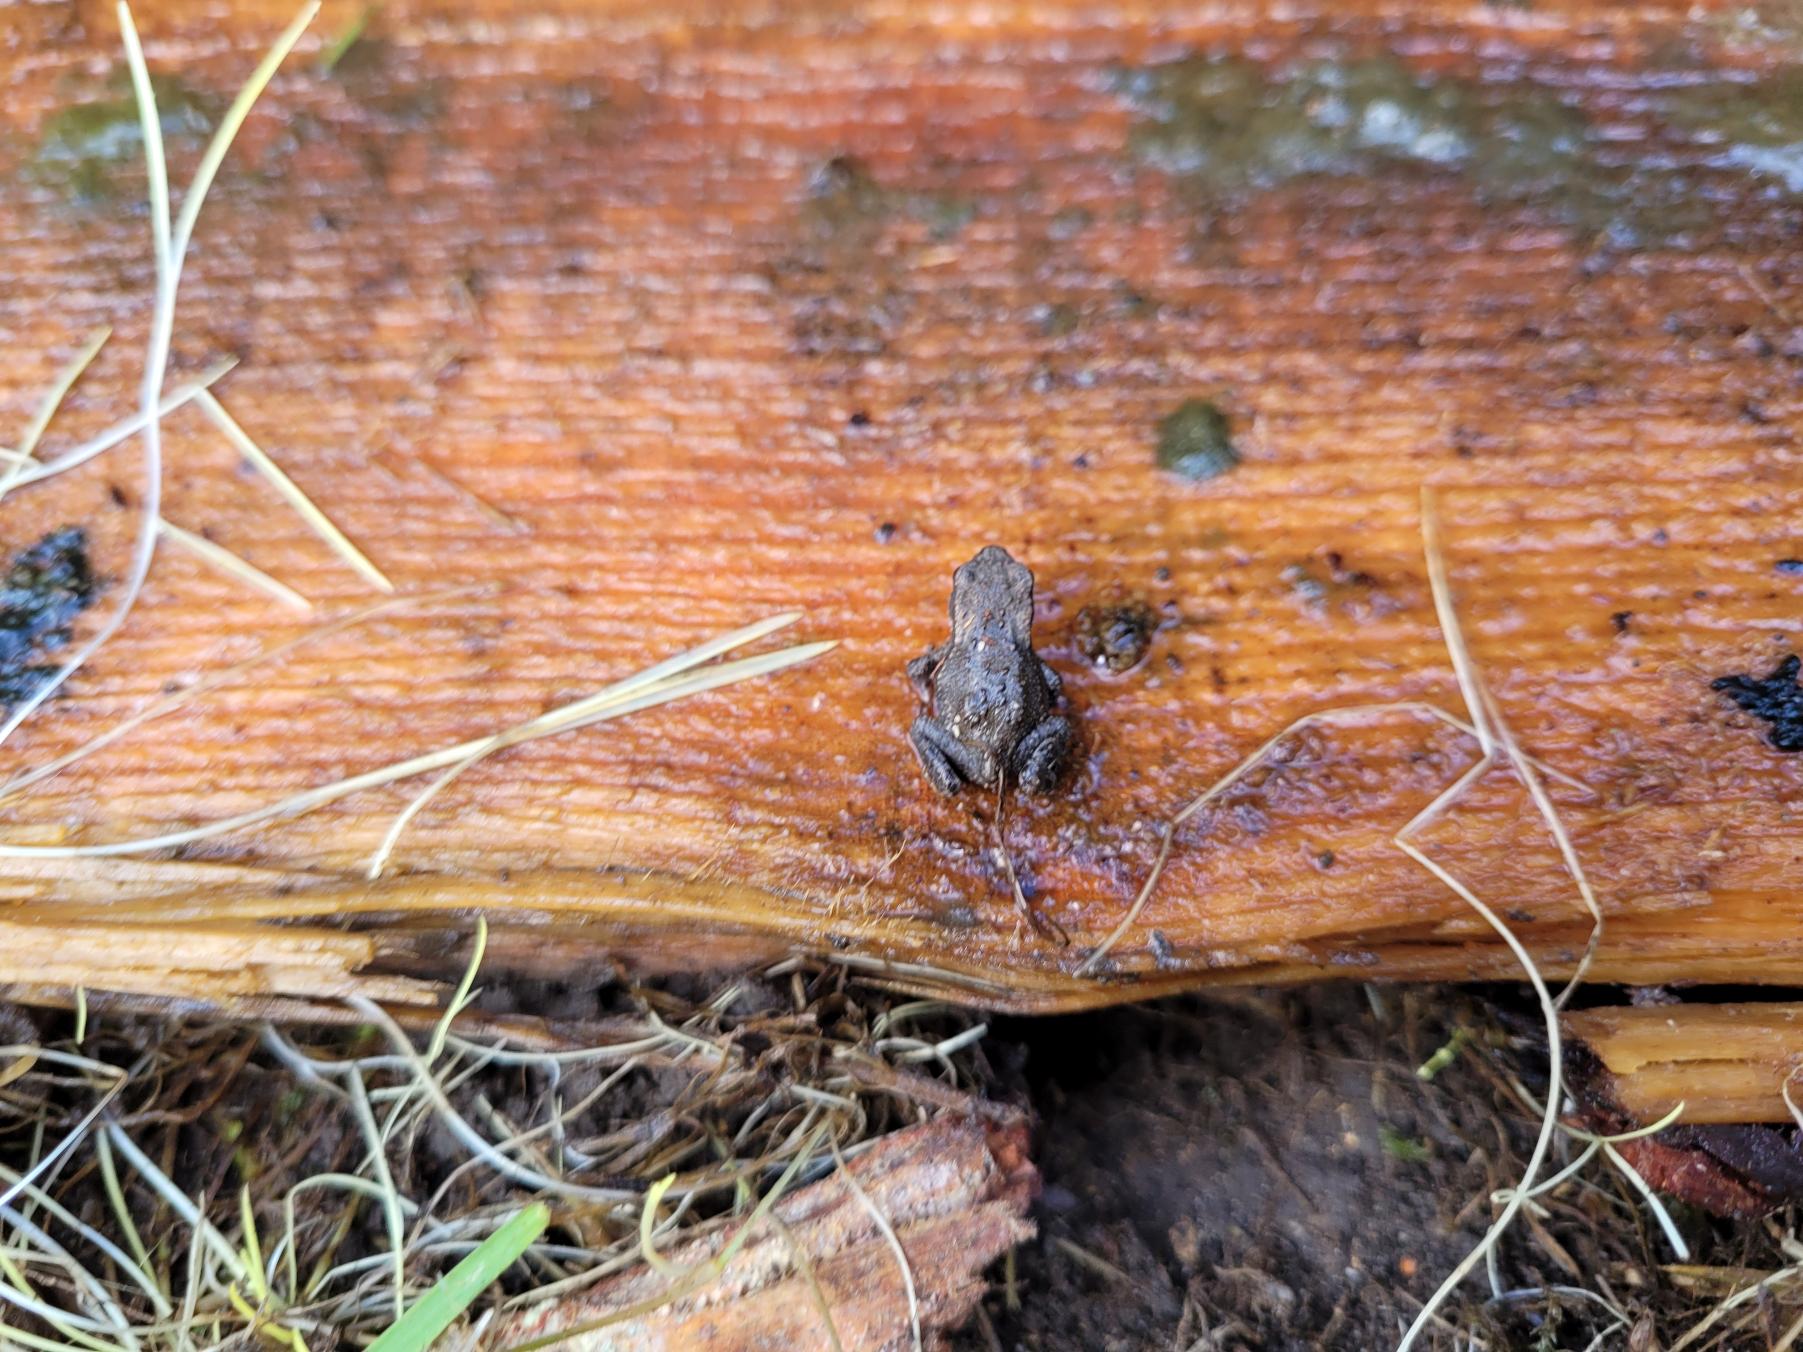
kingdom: Animalia
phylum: Chordata
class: Amphibia
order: Anura
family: Bufonidae
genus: Bufo
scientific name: Bufo bufo
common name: Skrubtudse
